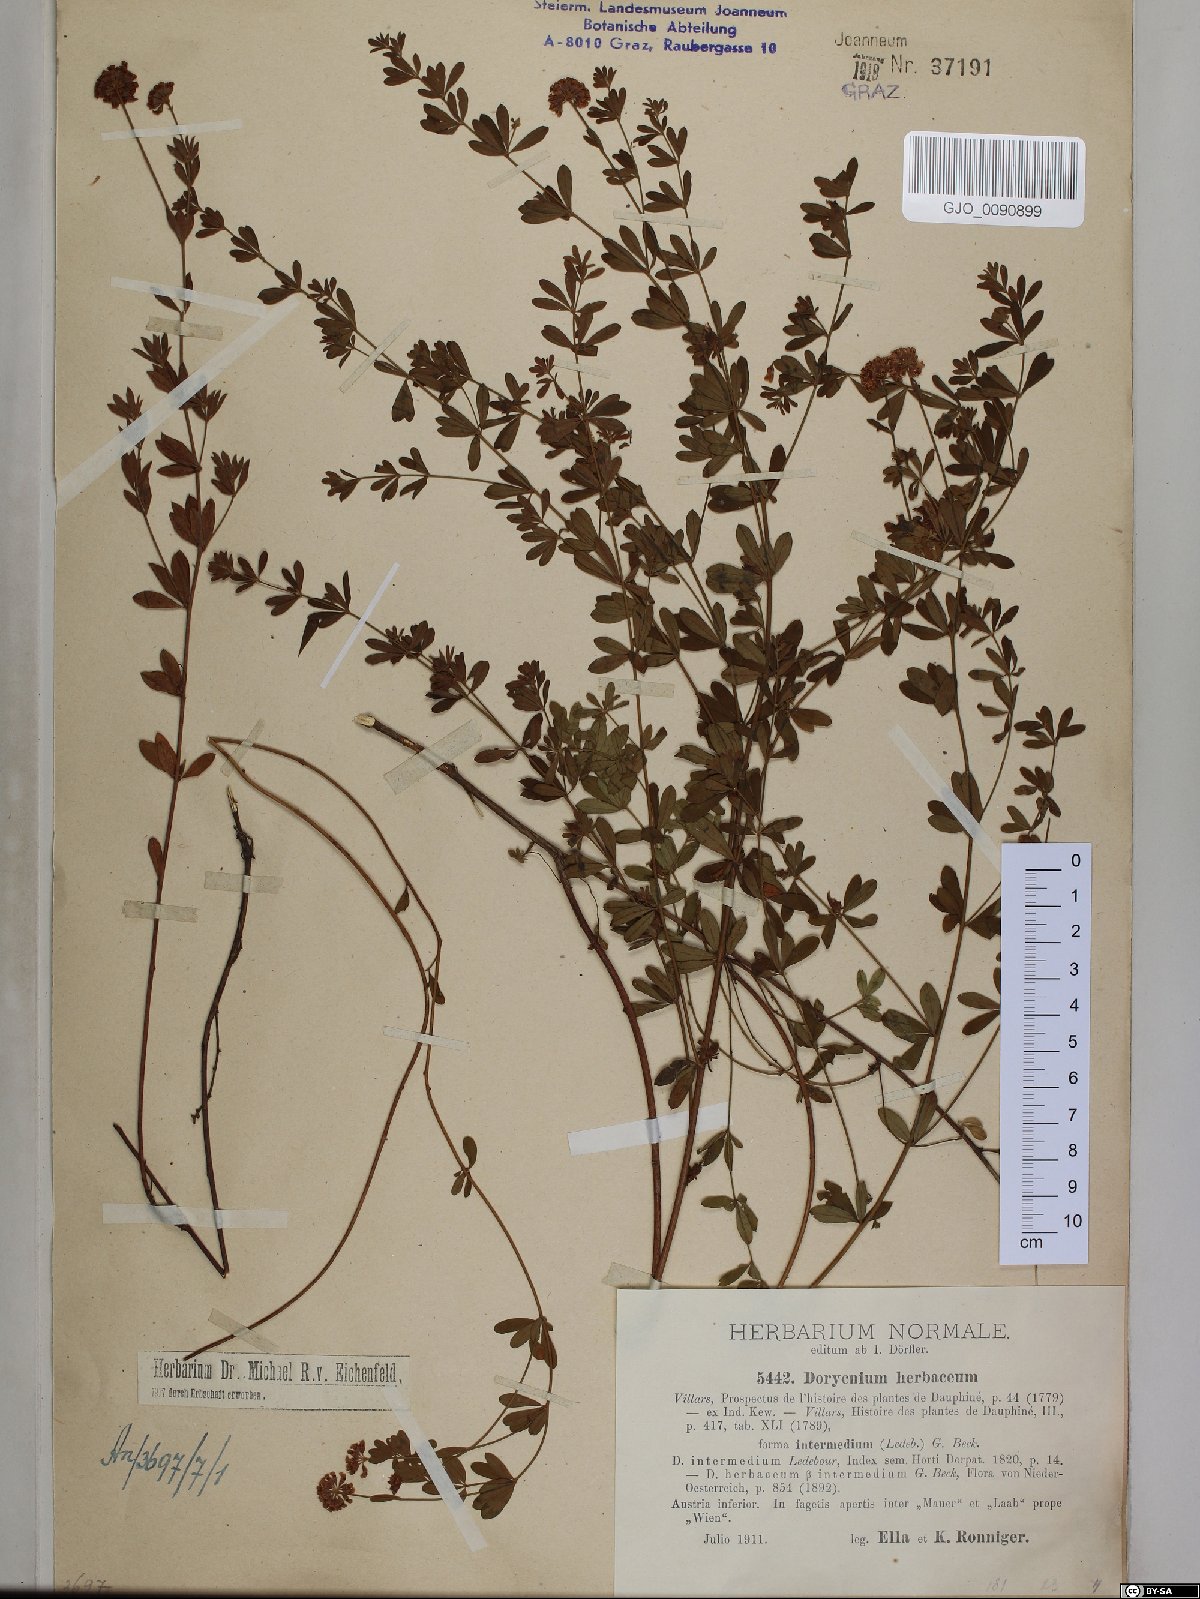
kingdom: Plantae
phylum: Tracheophyta
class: Magnoliopsida
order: Fabales
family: Fabaceae
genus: Lotus
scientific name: Lotus herbaceus
